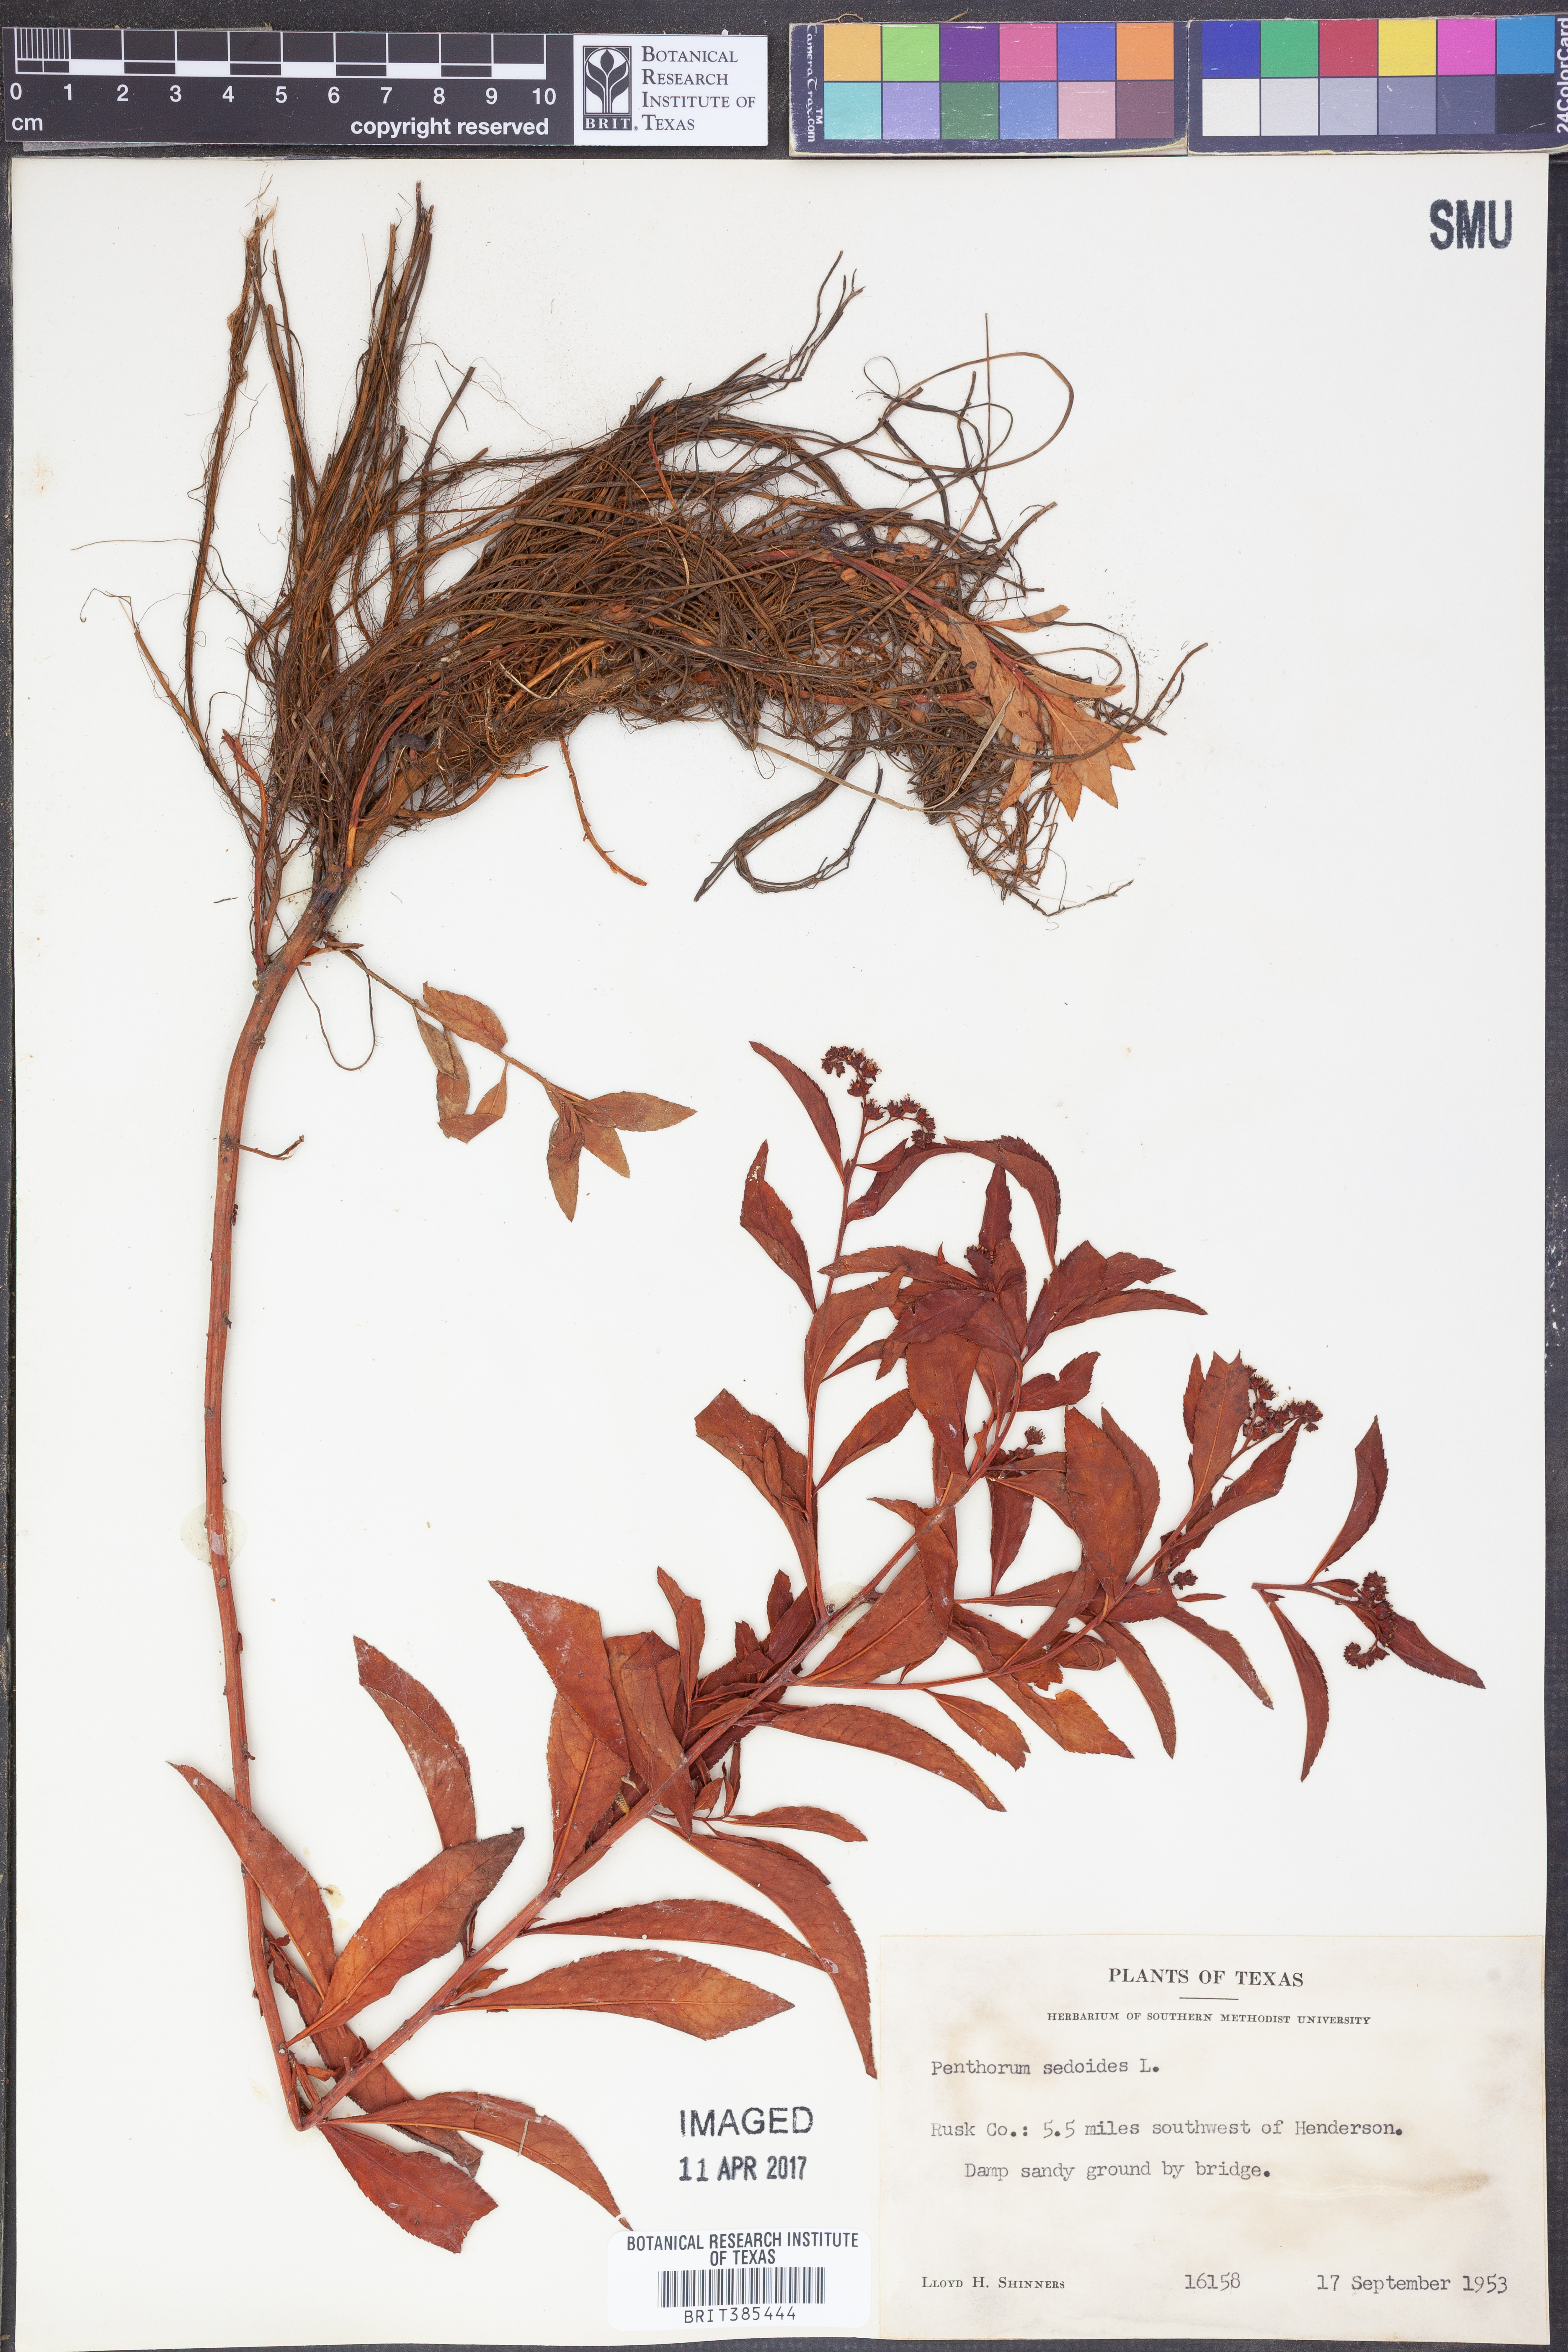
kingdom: Plantae
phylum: Tracheophyta
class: Magnoliopsida
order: Saxifragales
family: Penthoraceae
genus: Penthorum
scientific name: Penthorum sedoides
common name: Ditch stonecrop
